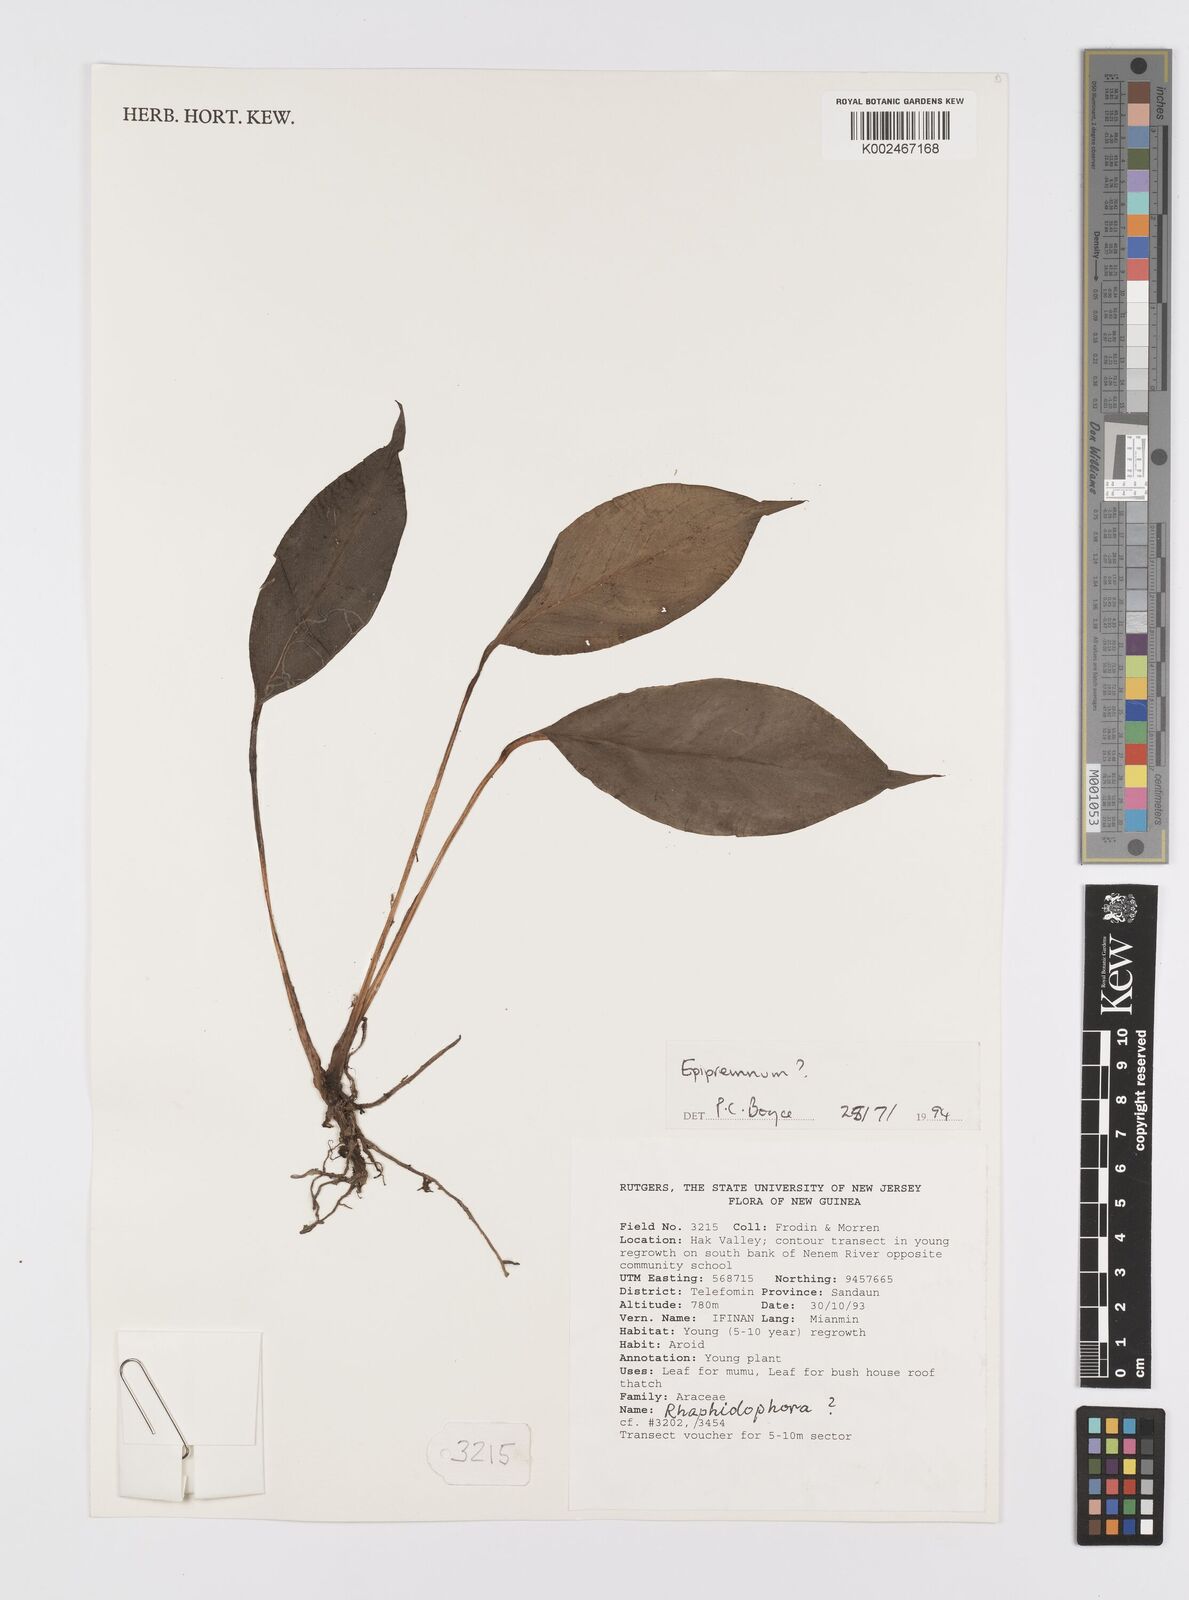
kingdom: Plantae
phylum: Tracheophyta
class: Liliopsida
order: Acorales
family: Acoraceae
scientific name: Acoraceae
